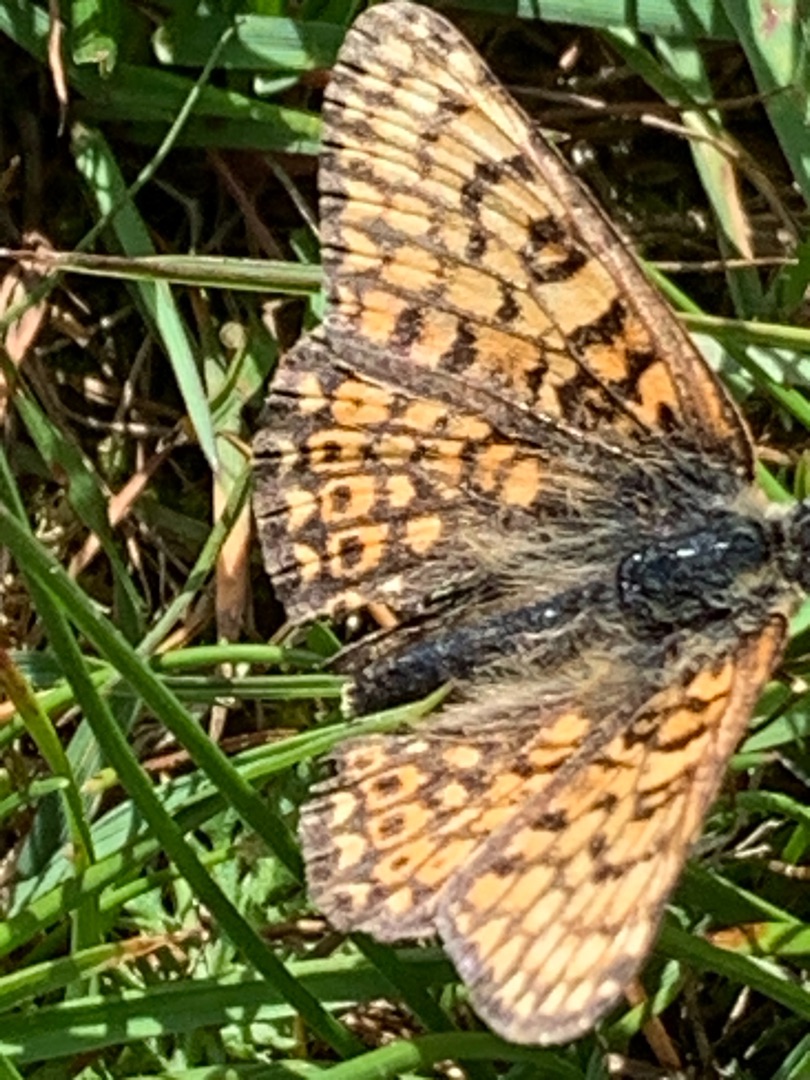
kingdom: Animalia
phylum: Arthropoda
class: Insecta
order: Lepidoptera
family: Nymphalidae
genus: Melitaea
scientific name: Melitaea cinxia
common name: Okkergul pletvinge
